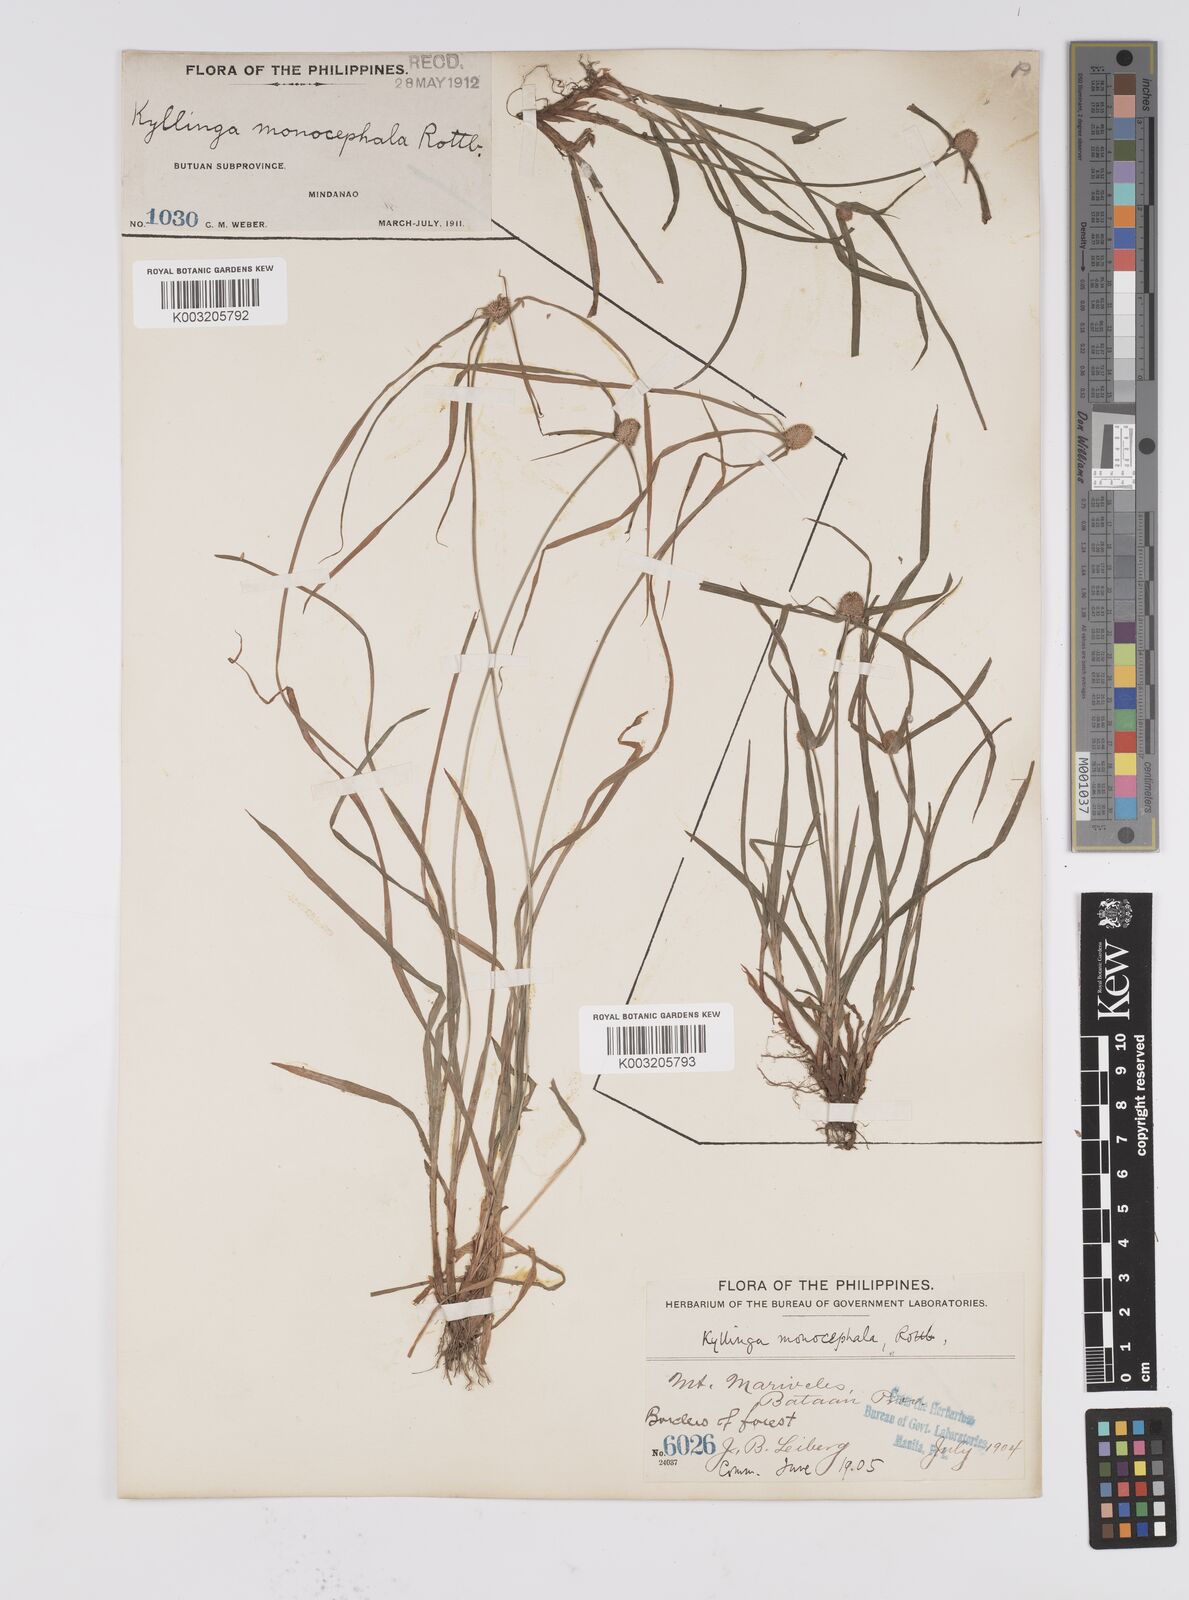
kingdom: Plantae
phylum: Tracheophyta
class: Liliopsida
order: Poales
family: Cyperaceae
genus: Cyperus
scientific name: Cyperus nemoralis
